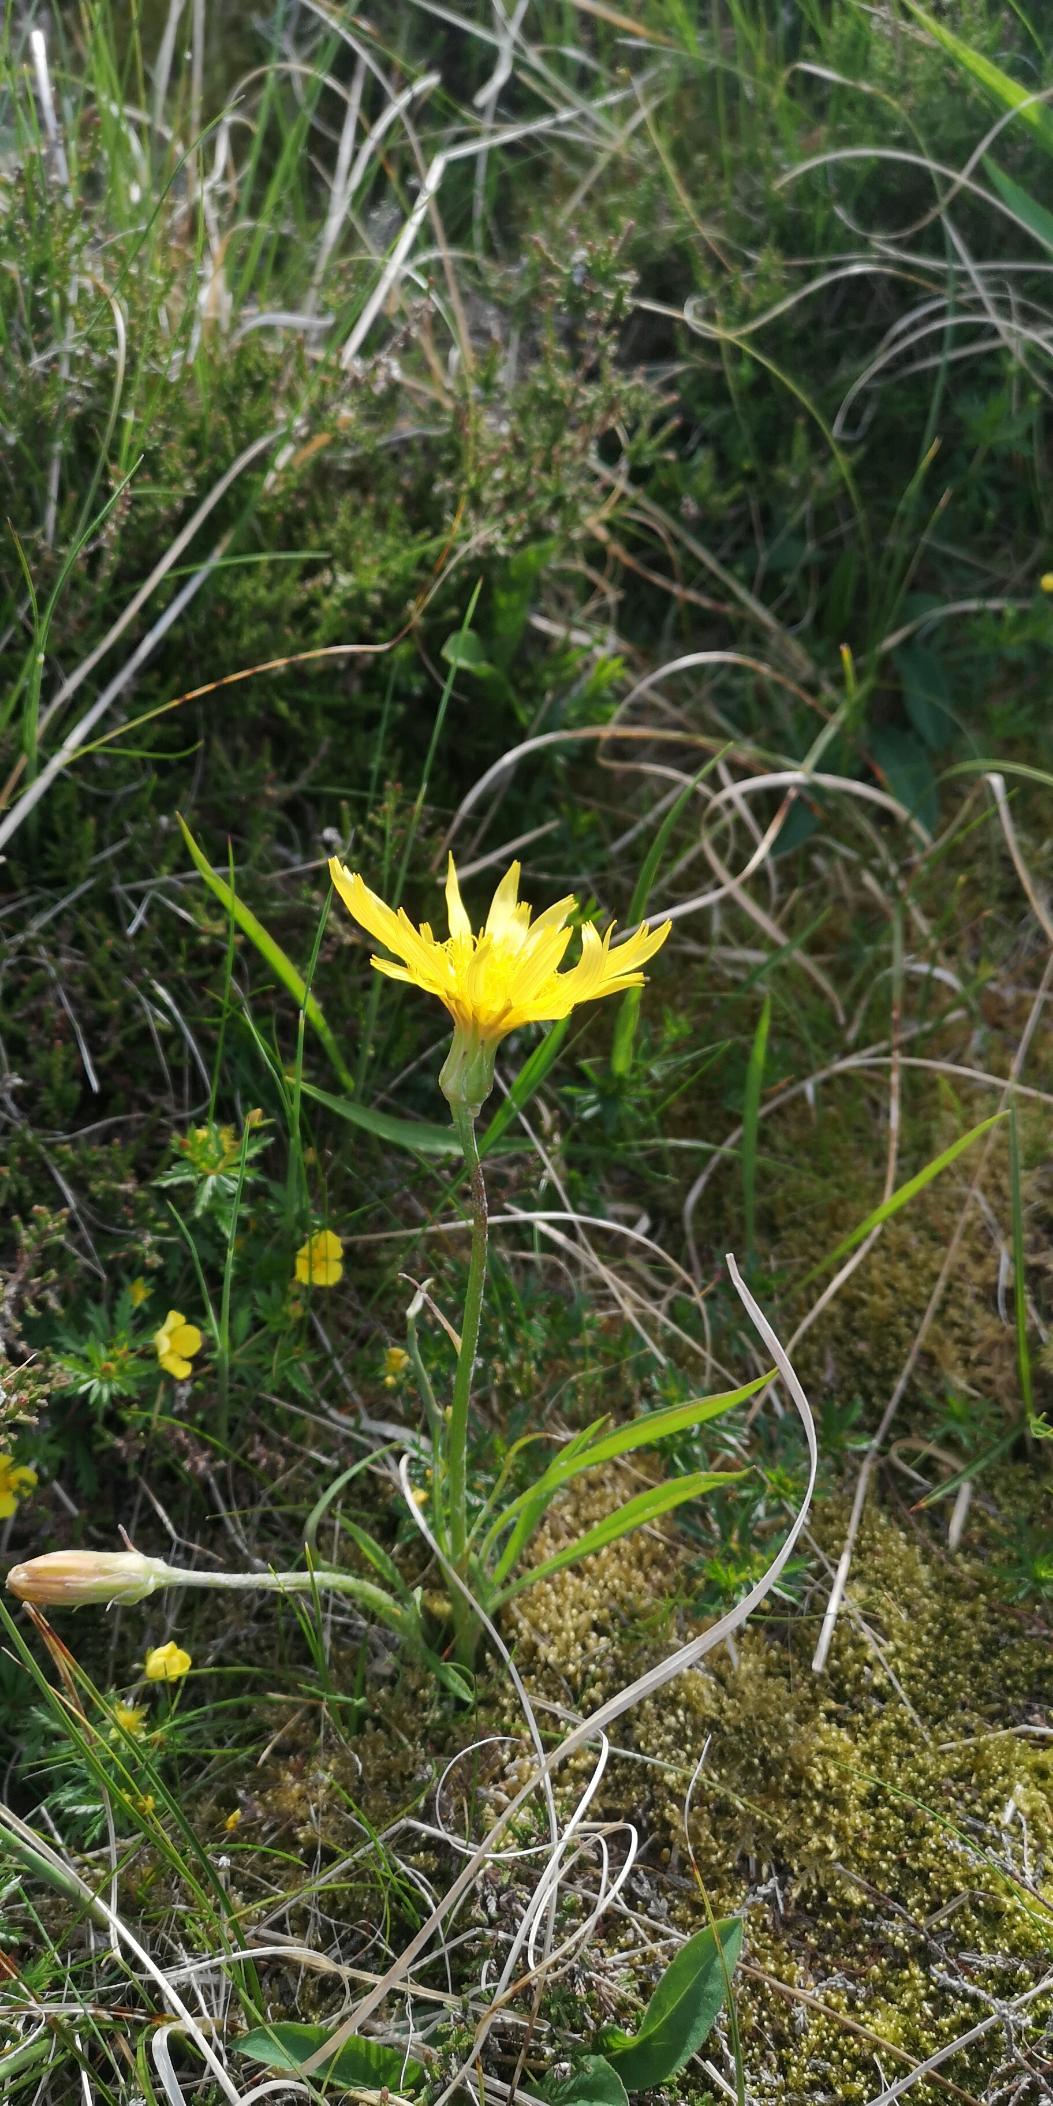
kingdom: Plantae
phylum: Tracheophyta
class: Magnoliopsida
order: Asterales
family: Asteraceae
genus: Scorzonera
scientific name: Scorzonera humilis
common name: Lav skorsoner
